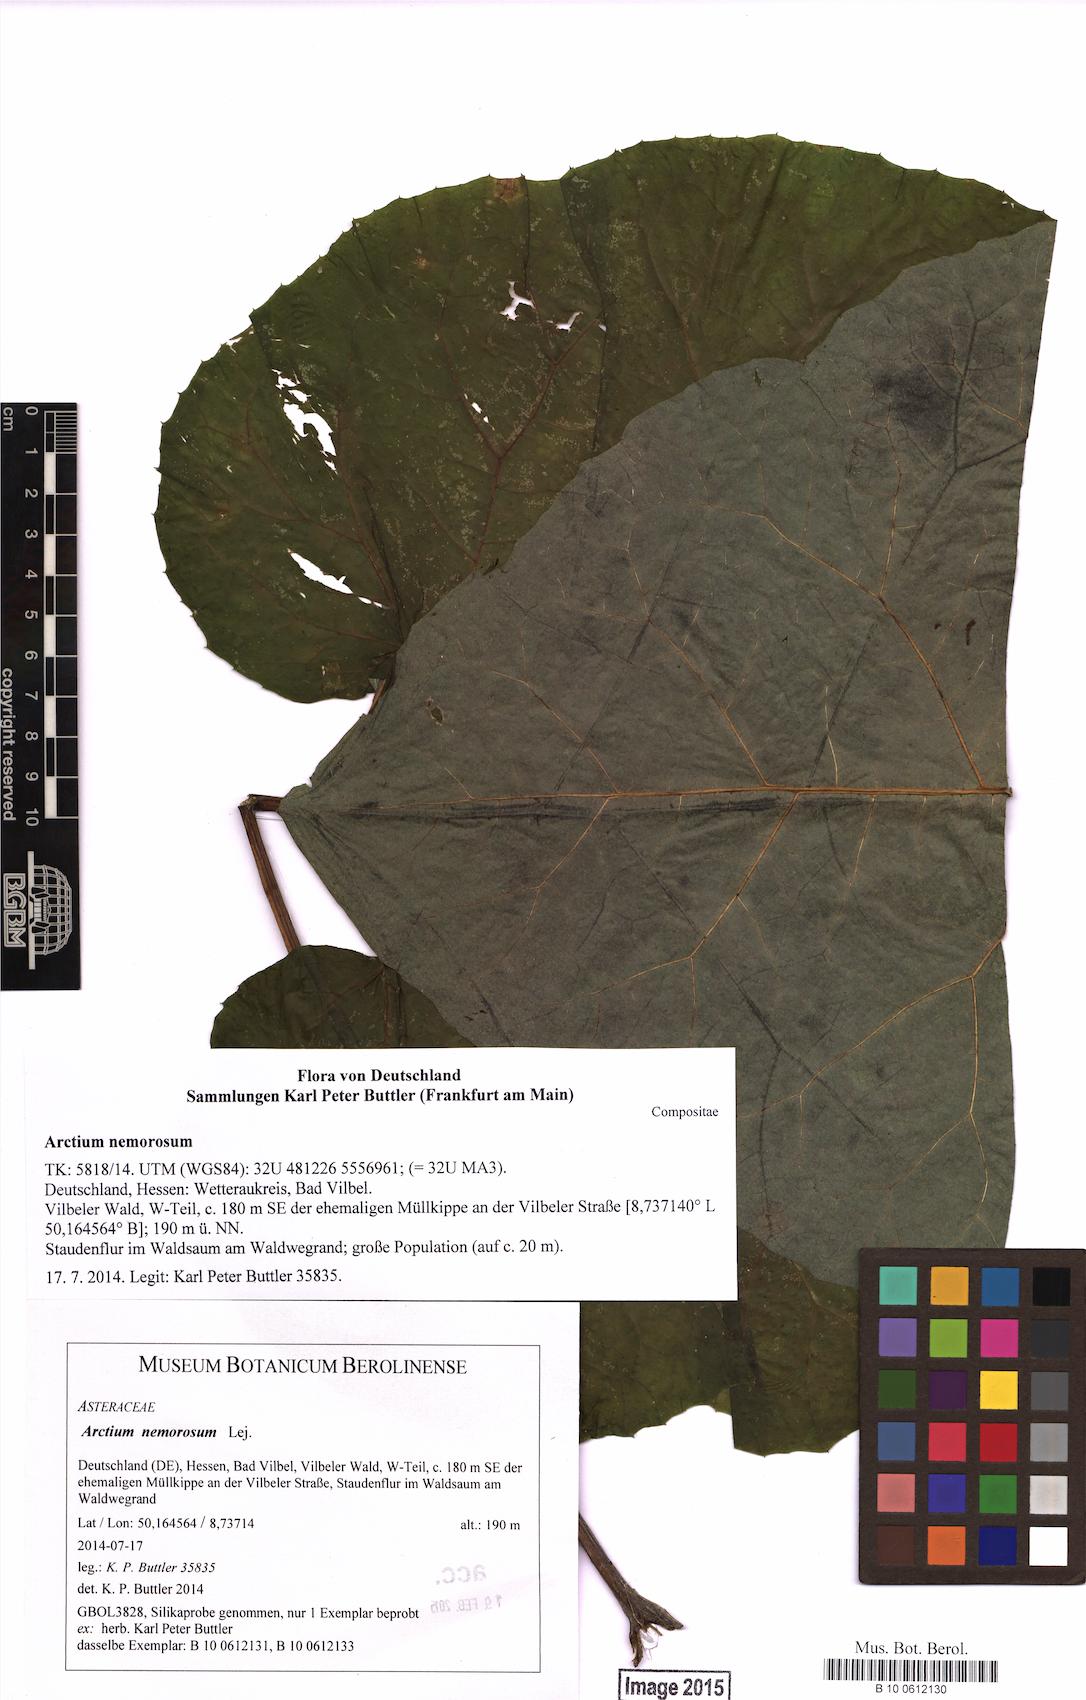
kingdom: Plantae
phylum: Tracheophyta
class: Magnoliopsida
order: Asterales
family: Asteraceae
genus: Arctium
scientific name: Arctium nemorosum
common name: Wood burdock
